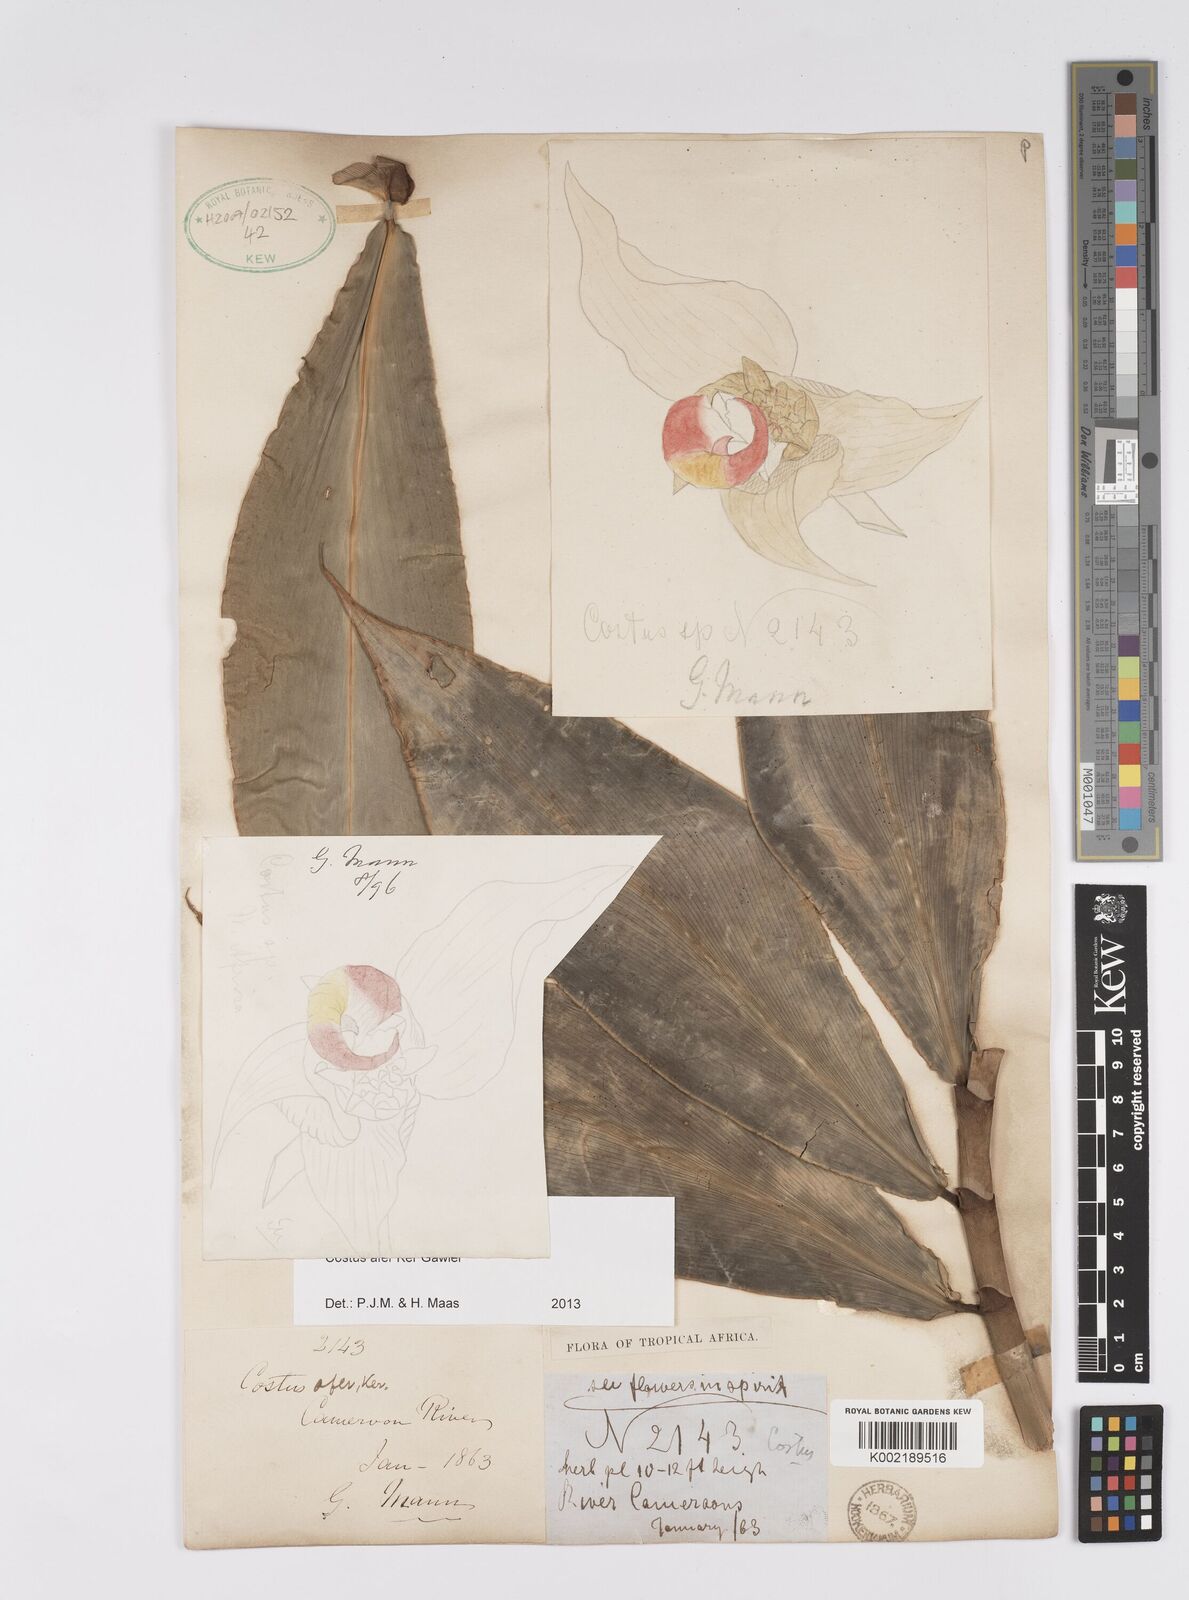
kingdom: Plantae
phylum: Tracheophyta
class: Liliopsida
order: Zingiberales
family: Costaceae
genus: Costus
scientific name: Costus afer
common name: Spiral-ginger
